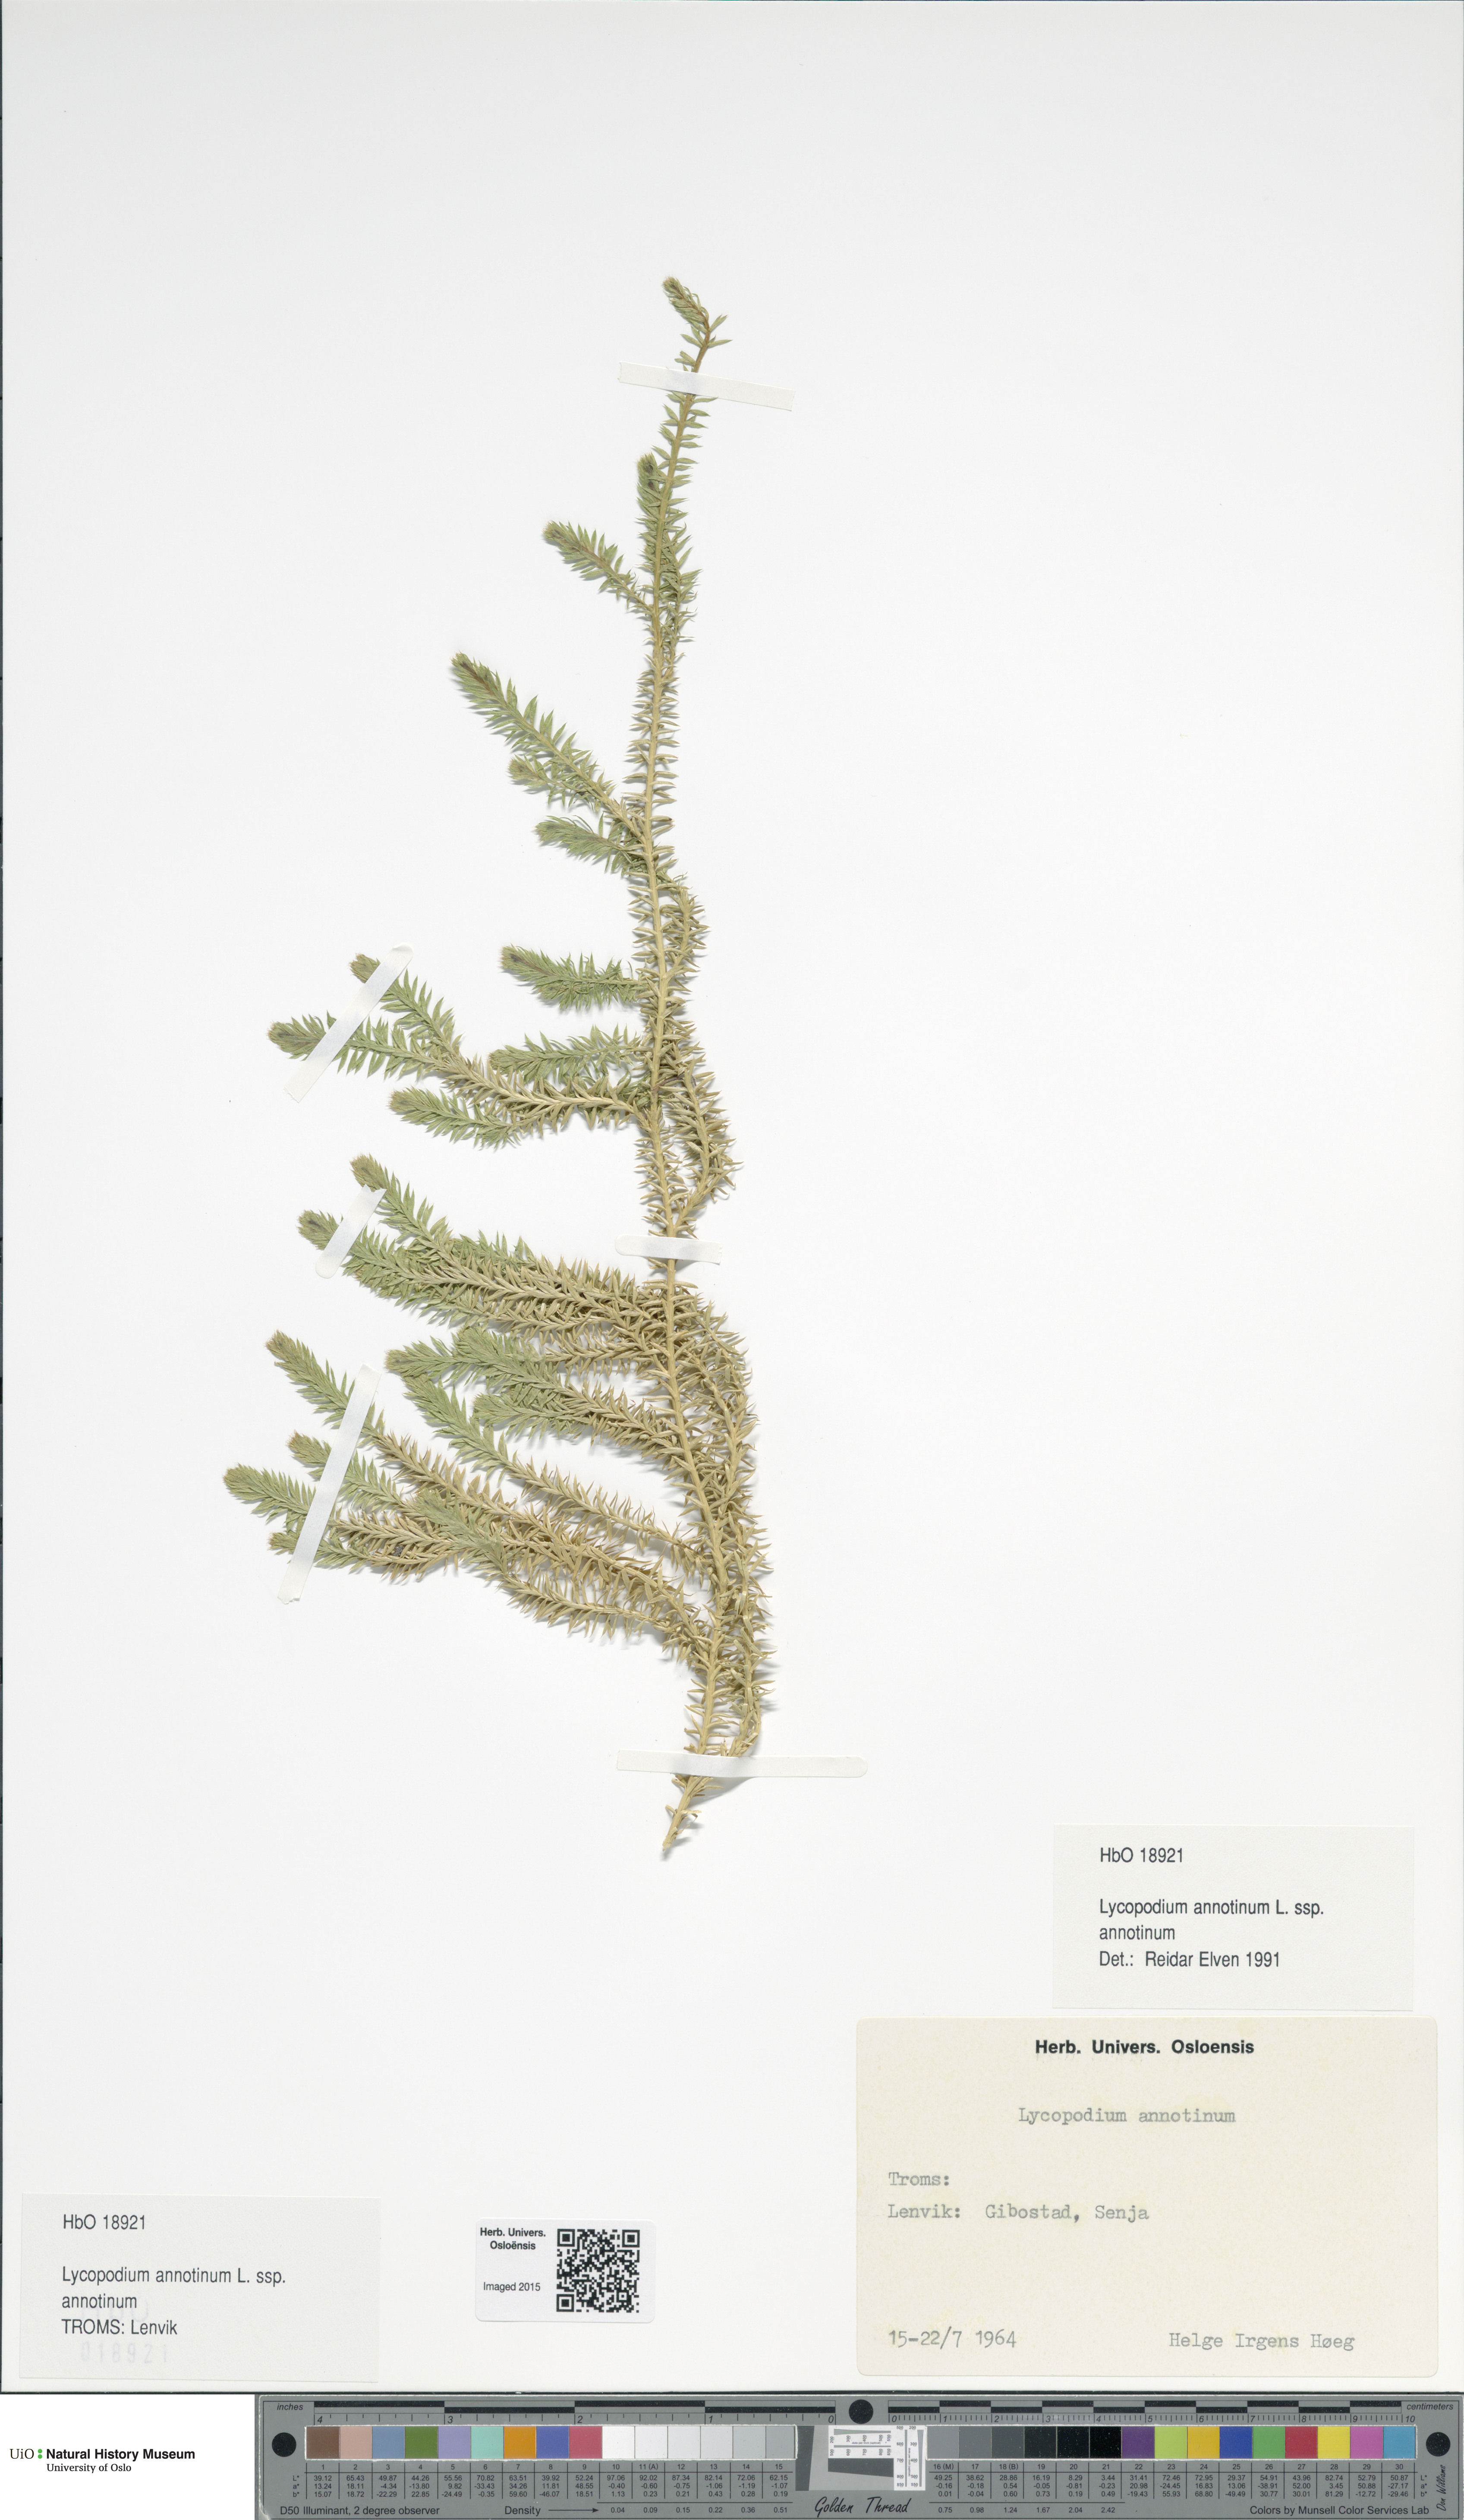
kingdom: Plantae
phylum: Tracheophyta
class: Lycopodiopsida
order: Lycopodiales
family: Lycopodiaceae
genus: Spinulum
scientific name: Spinulum annotinum
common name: Interrupted club-moss
